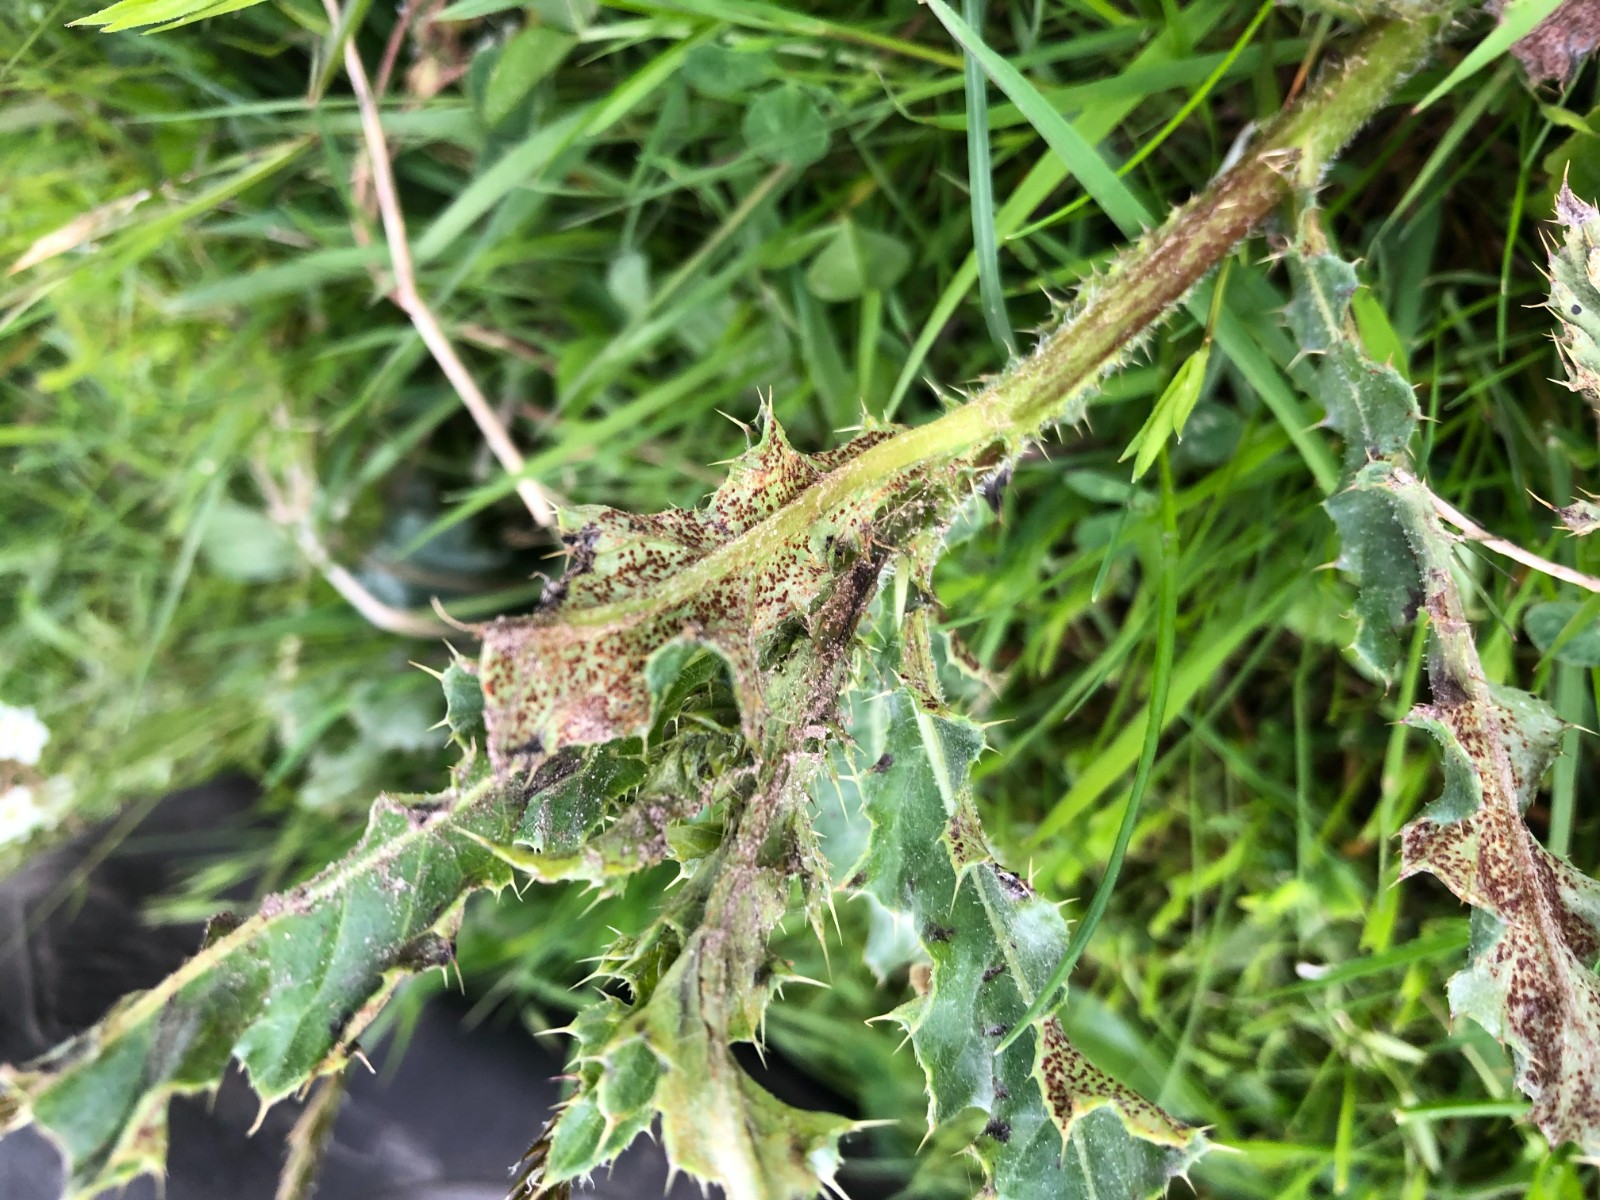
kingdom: Fungi
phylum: Basidiomycota
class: Pucciniomycetes
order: Pucciniales
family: Pucciniaceae
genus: Puccinia
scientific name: Puccinia suaveolens
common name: tidsel-tvecellerust
